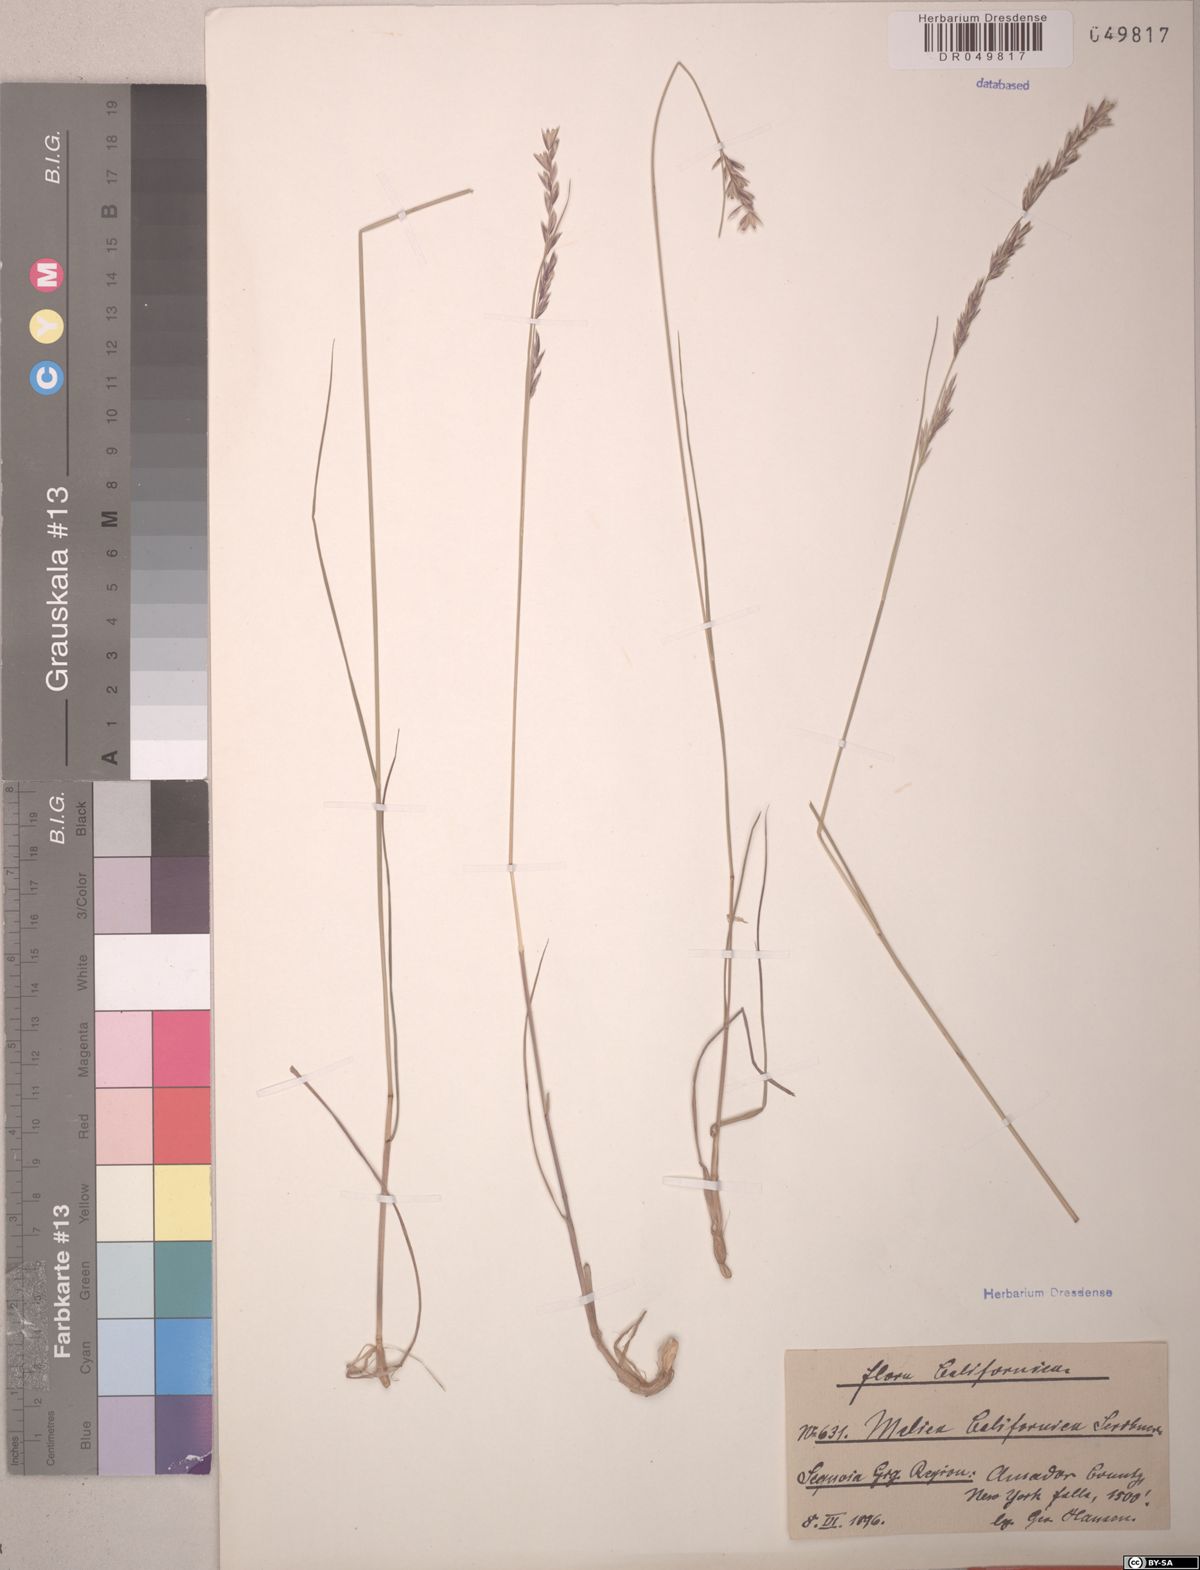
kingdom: Plantae
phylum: Tracheophyta
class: Liliopsida
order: Poales
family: Poaceae
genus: Melica
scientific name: Melica californica
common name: California melic
